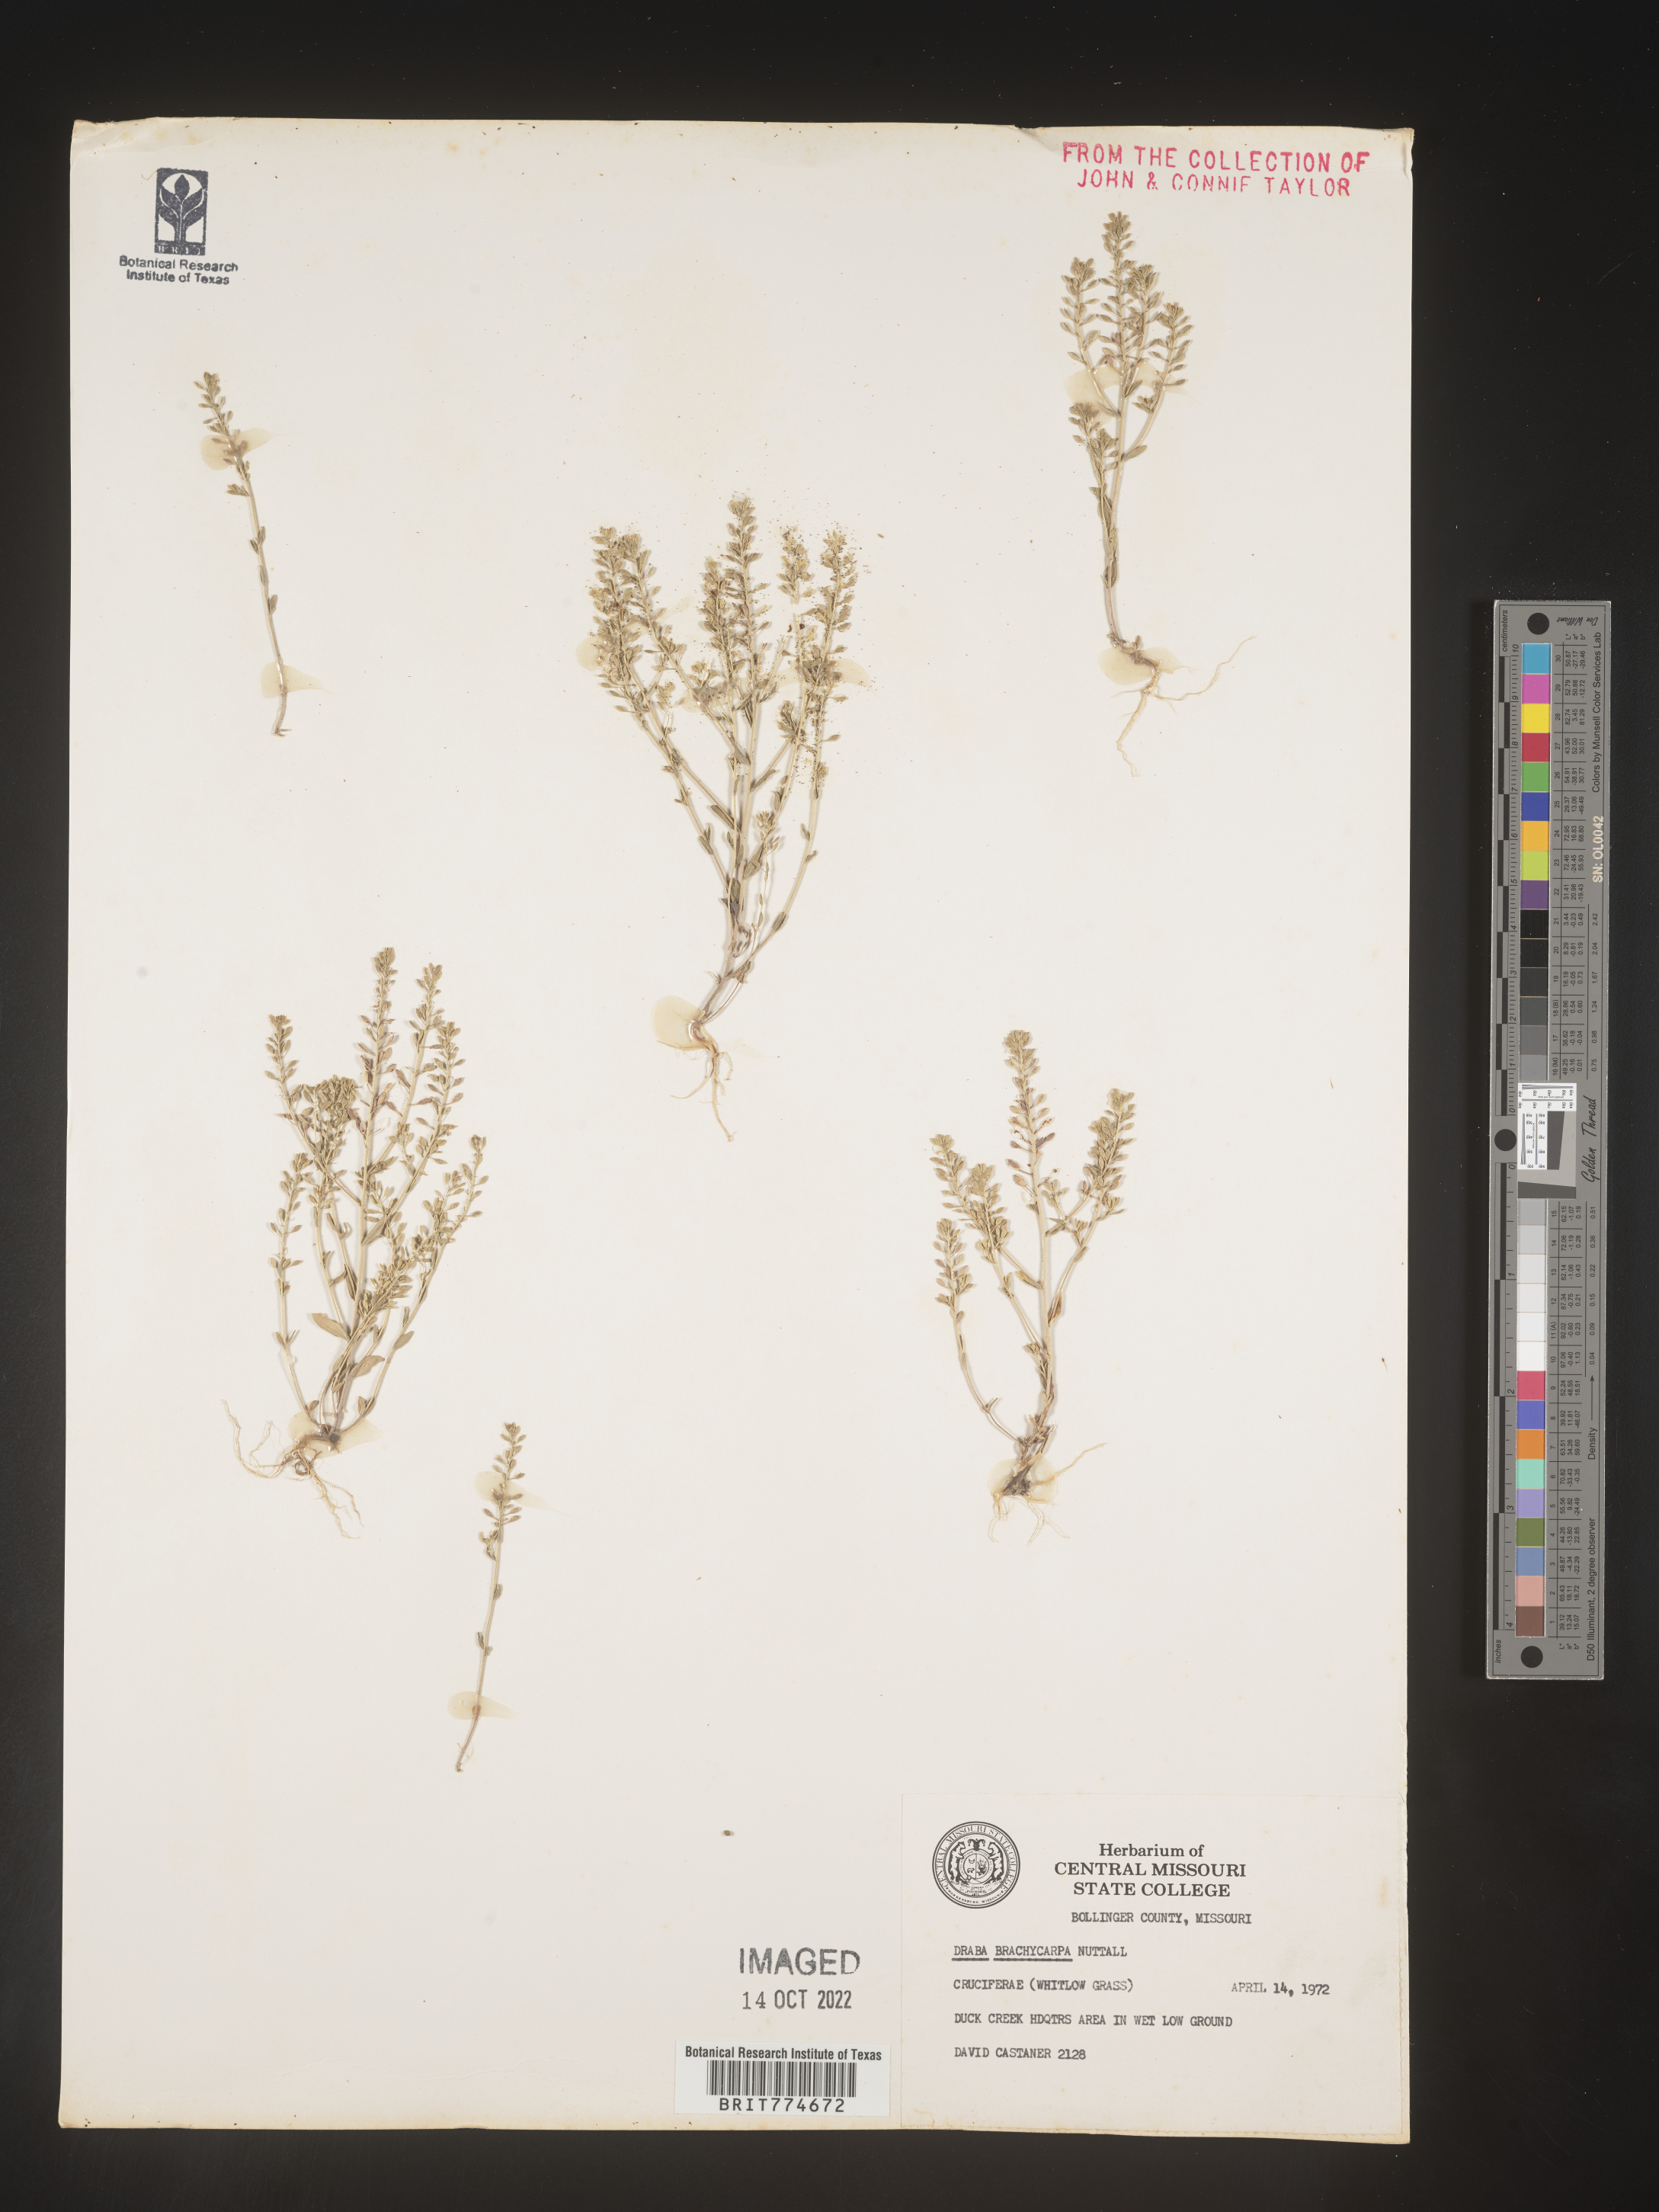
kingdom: Plantae
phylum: Tracheophyta
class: Magnoliopsida
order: Brassicales
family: Brassicaceae
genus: Abdra
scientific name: Abdra brachycarpa
